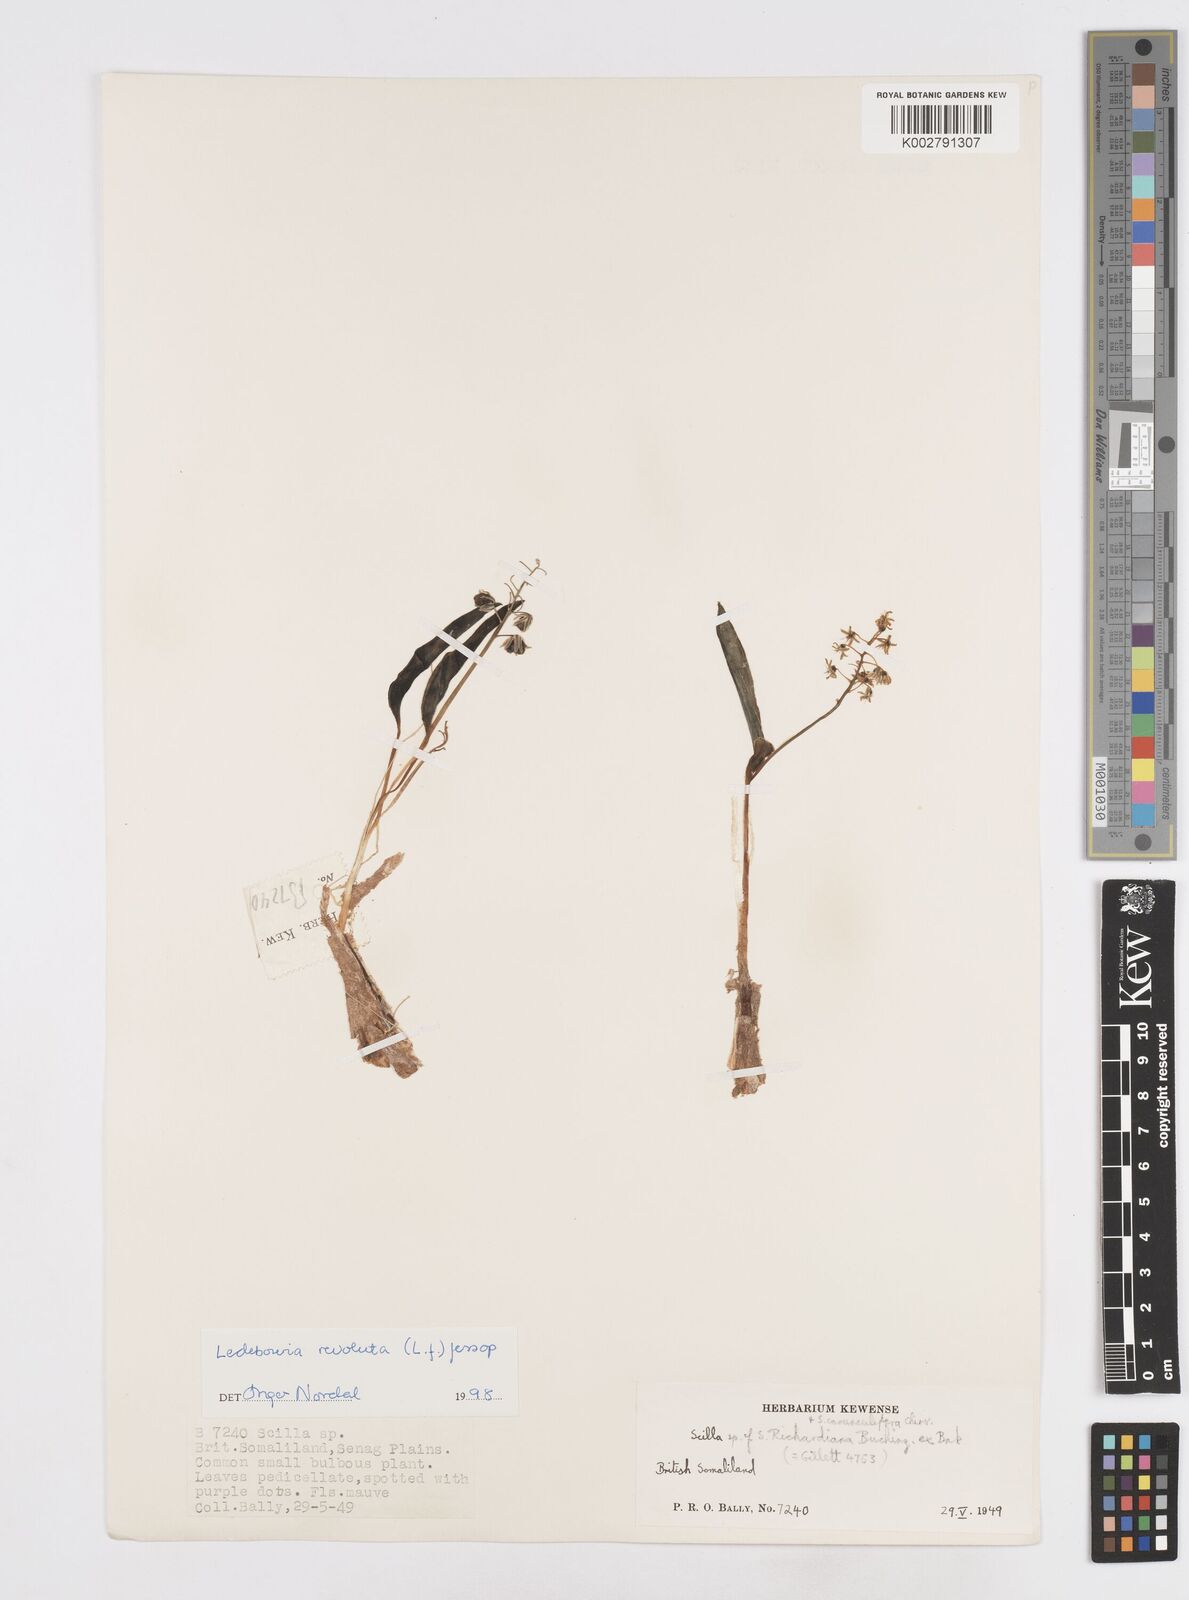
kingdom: Plantae
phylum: Tracheophyta
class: Liliopsida
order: Asparagales
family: Asparagaceae
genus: Scilla
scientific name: Scilla
